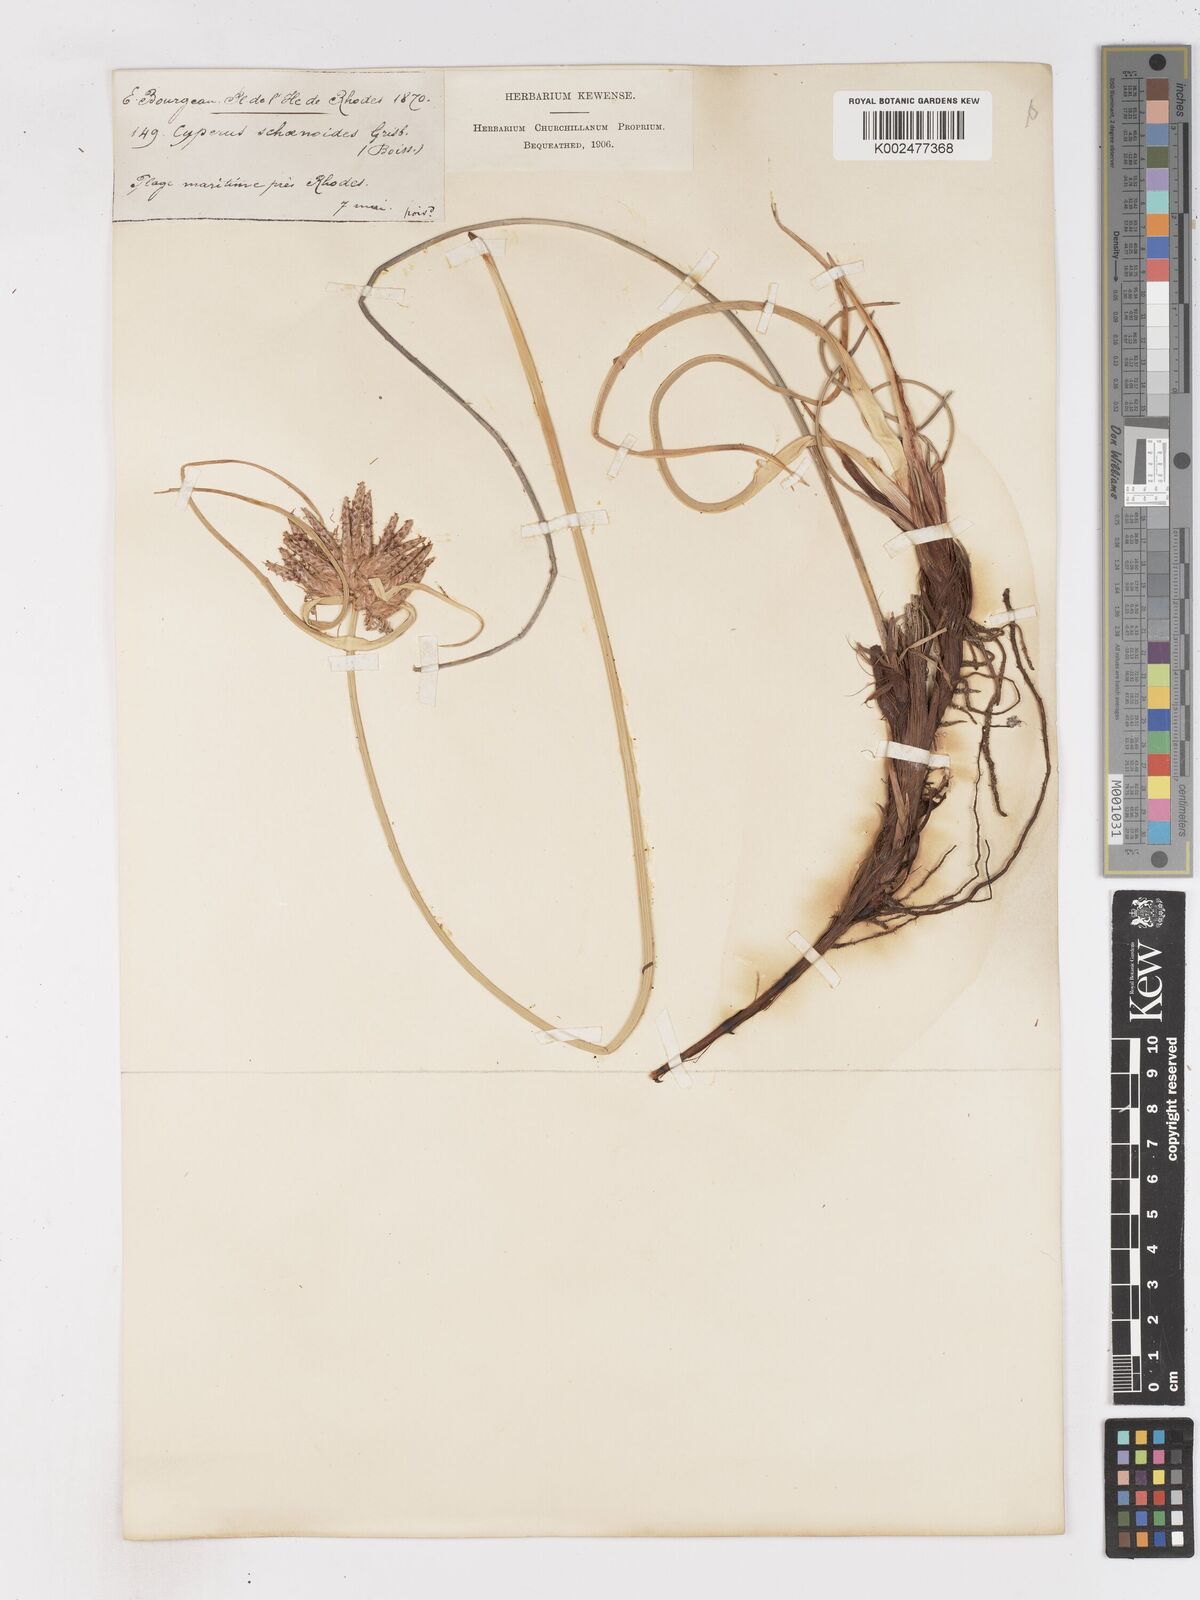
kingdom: Plantae
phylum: Tracheophyta
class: Liliopsida
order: Poales
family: Cyperaceae
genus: Cyperus
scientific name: Cyperus capitatus
